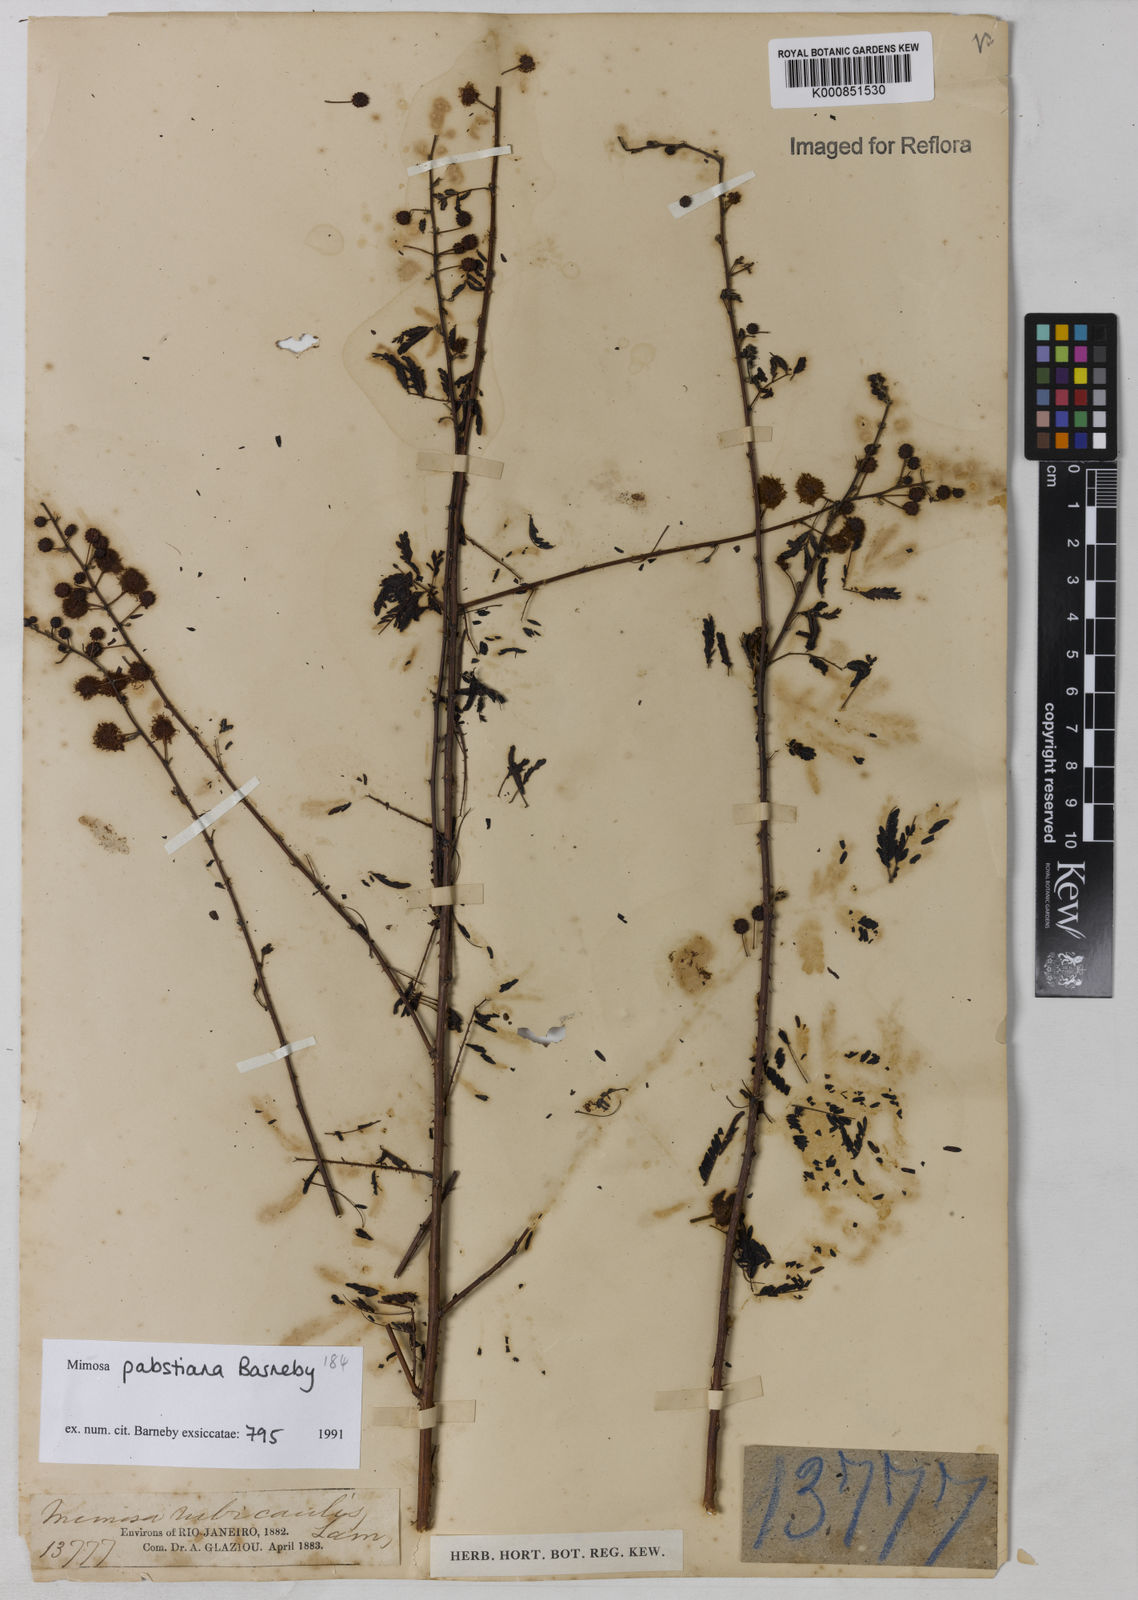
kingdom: Plantae
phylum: Tracheophyta
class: Magnoliopsida
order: Fabales
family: Fabaceae
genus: Mimosa
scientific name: Mimosa pabstiana
